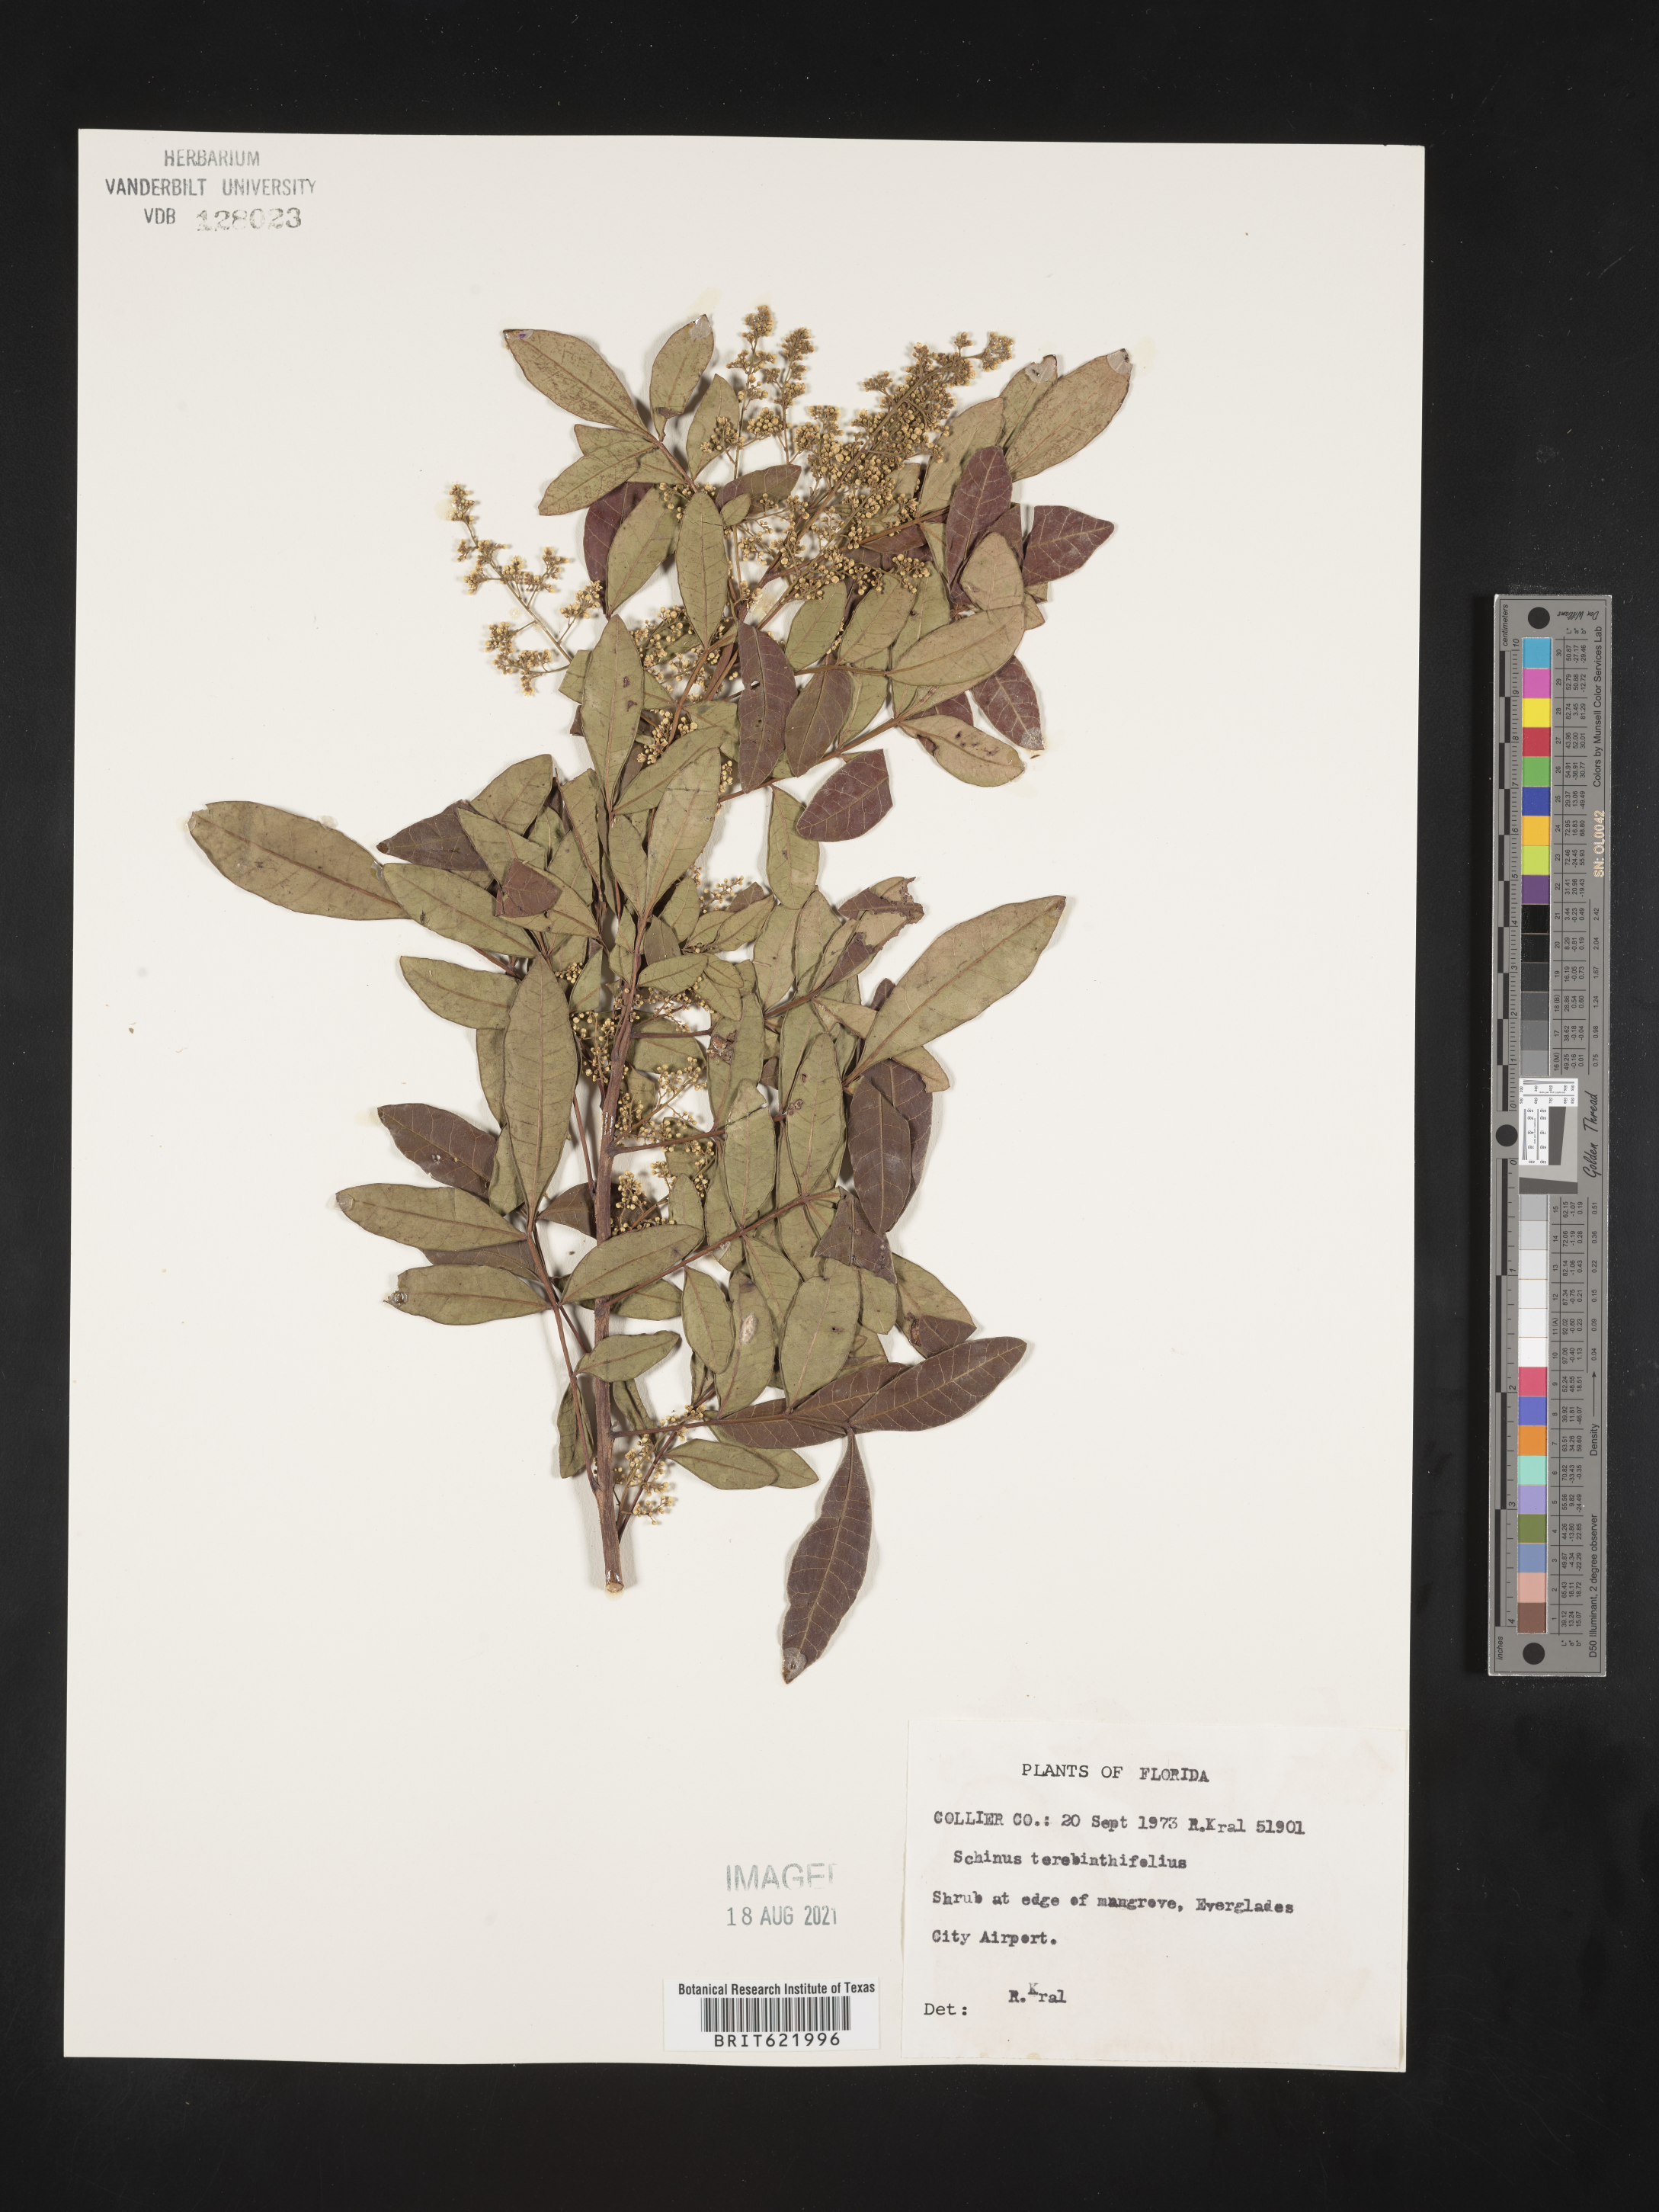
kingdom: Plantae
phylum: Tracheophyta
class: Magnoliopsida
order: Sapindales
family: Anacardiaceae
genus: Schinus
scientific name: Schinus terebinthifolia
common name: Brazilian peppertree
